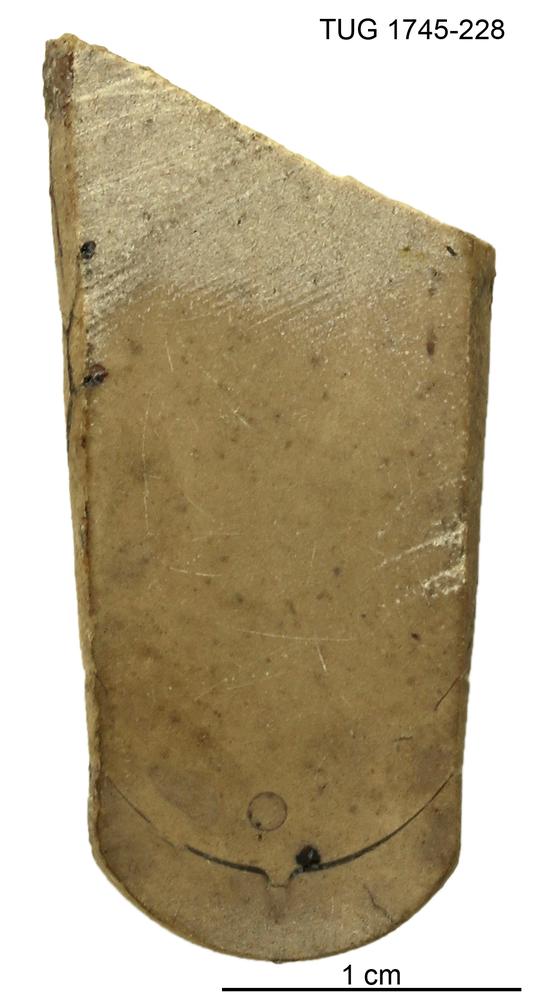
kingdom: Animalia
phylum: Mollusca
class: Cephalopoda
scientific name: Cephalopoda
